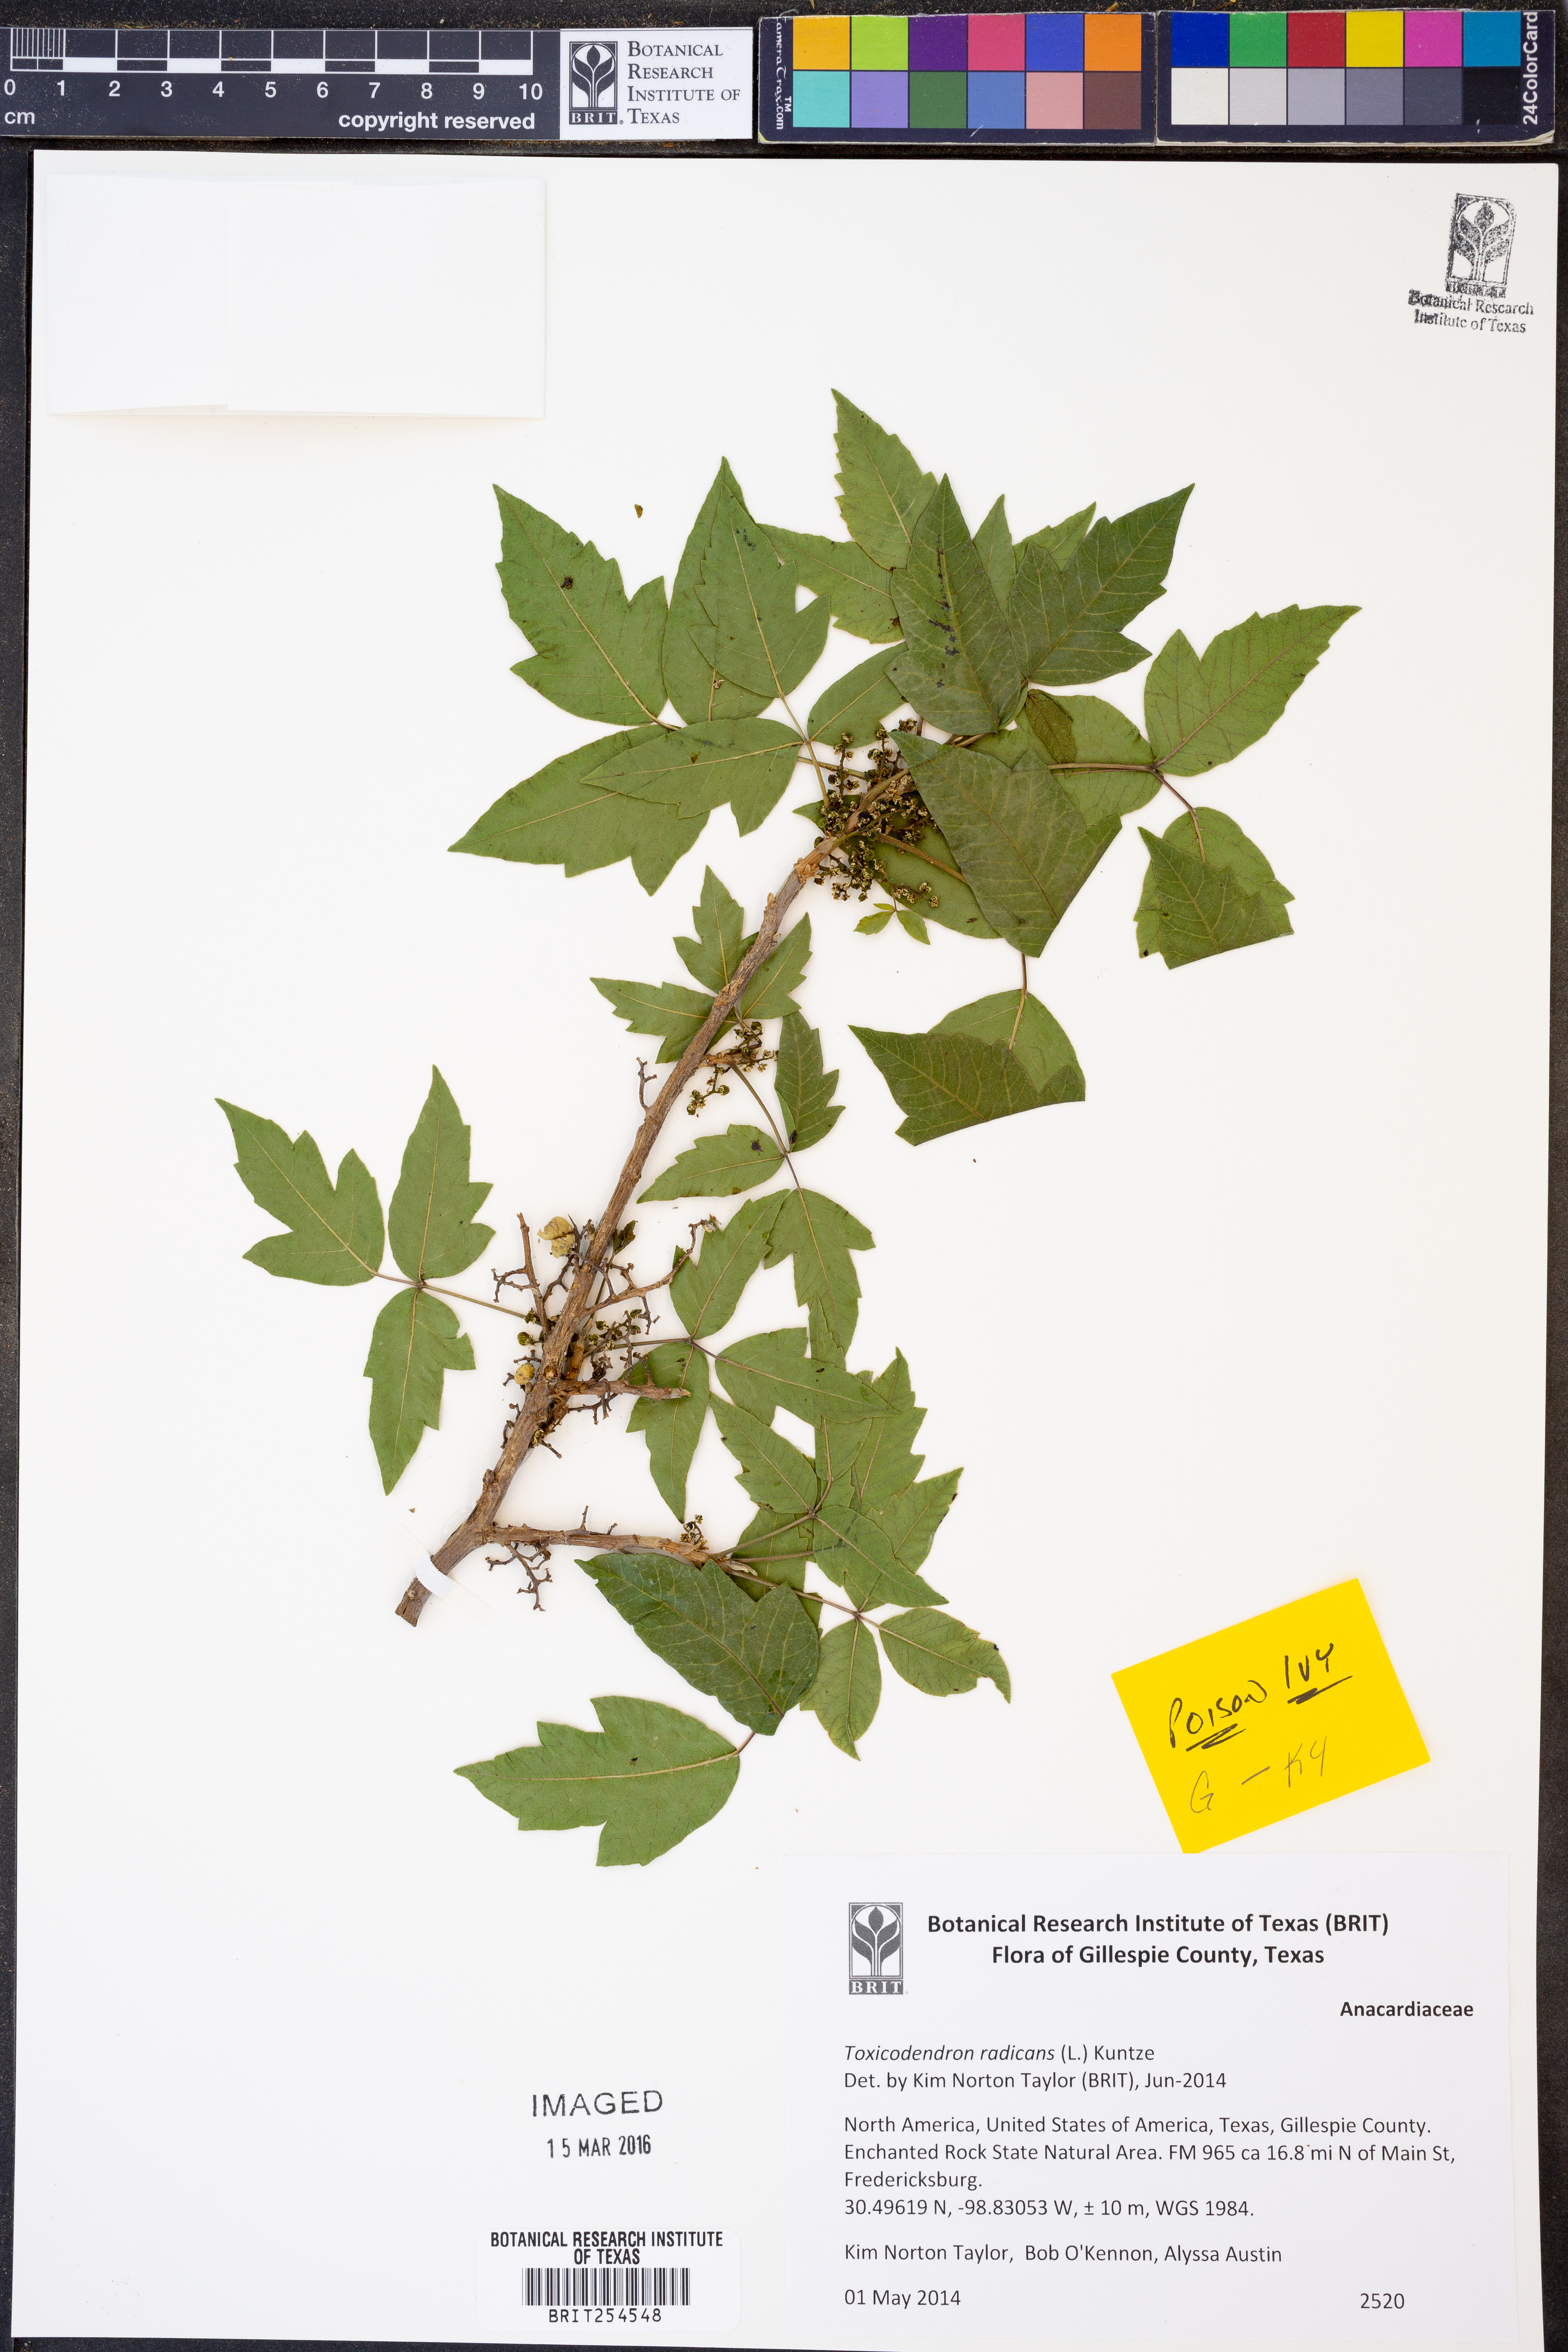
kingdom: Plantae
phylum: Tracheophyta
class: Magnoliopsida
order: Sapindales
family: Anacardiaceae
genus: Toxicodendron
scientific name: Toxicodendron radicans
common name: Poison ivy
